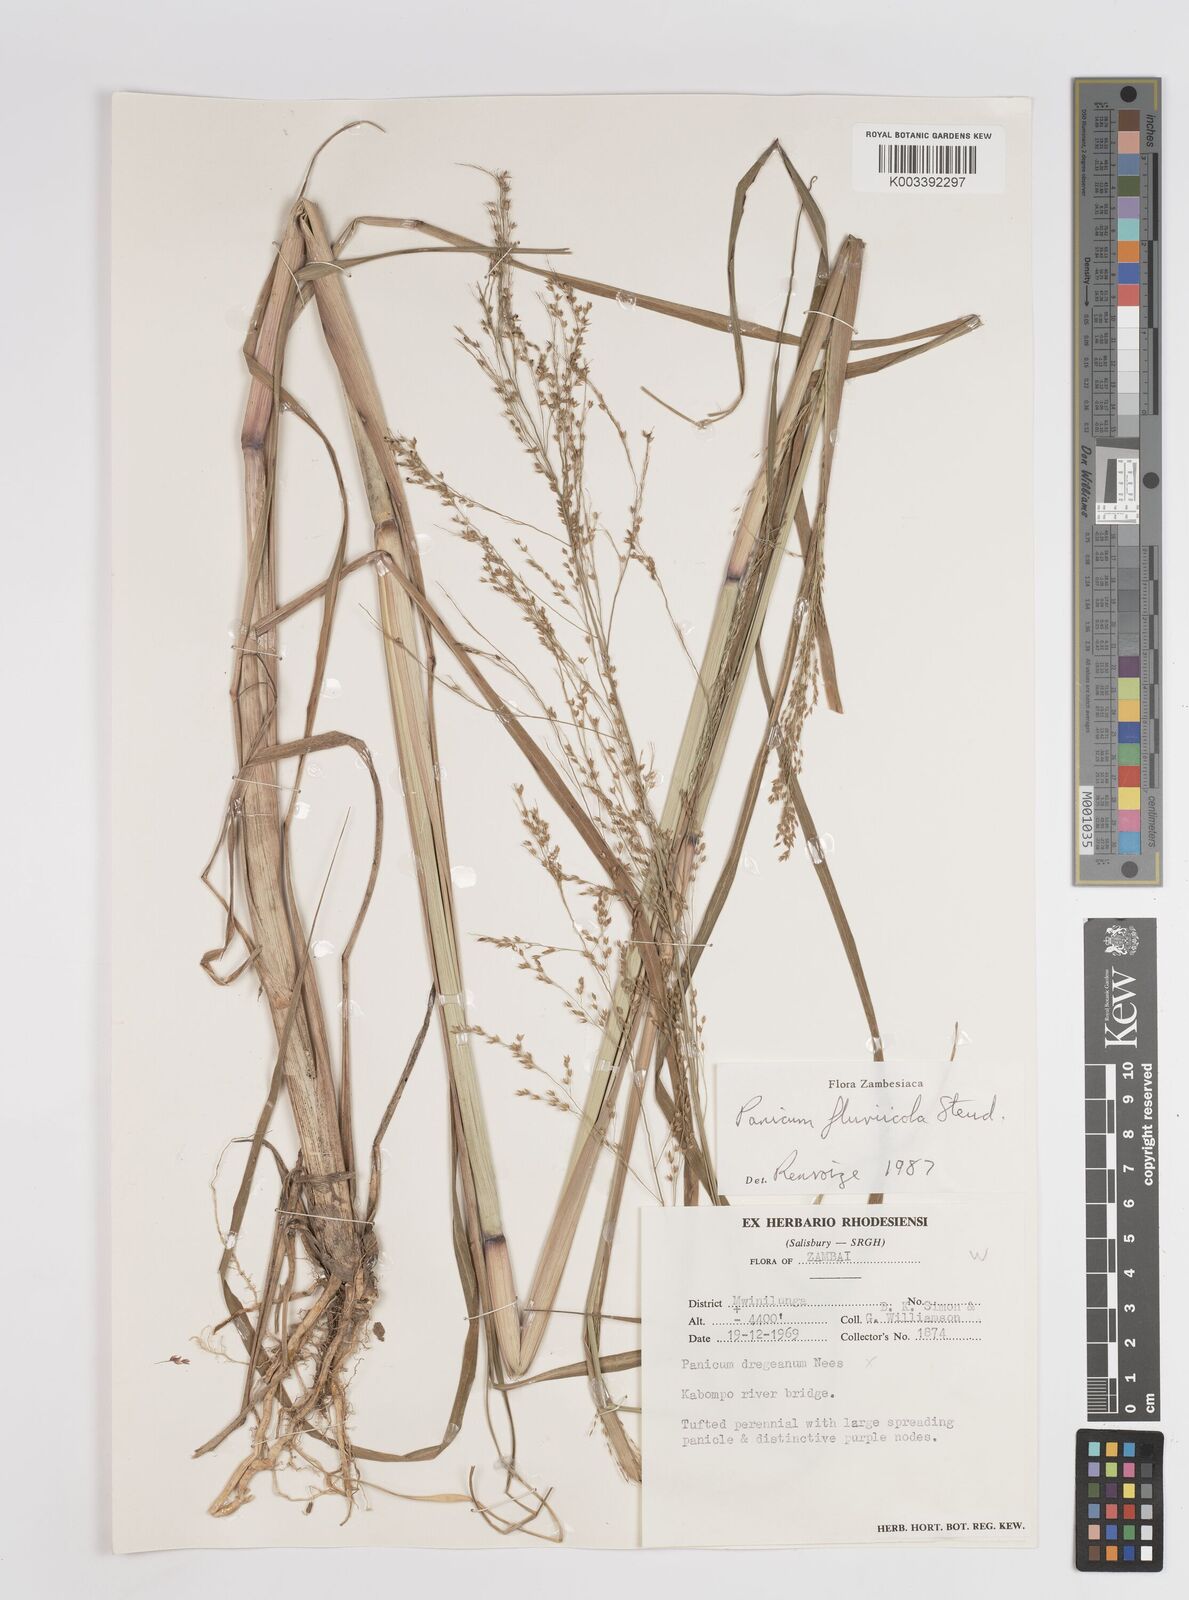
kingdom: Plantae
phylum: Tracheophyta
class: Liliopsida
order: Poales
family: Poaceae
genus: Panicum
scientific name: Panicum fluviicola
